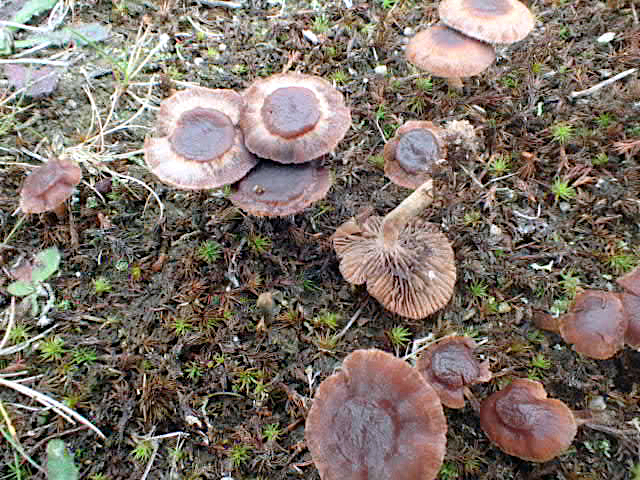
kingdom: Fungi
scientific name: Fungi
